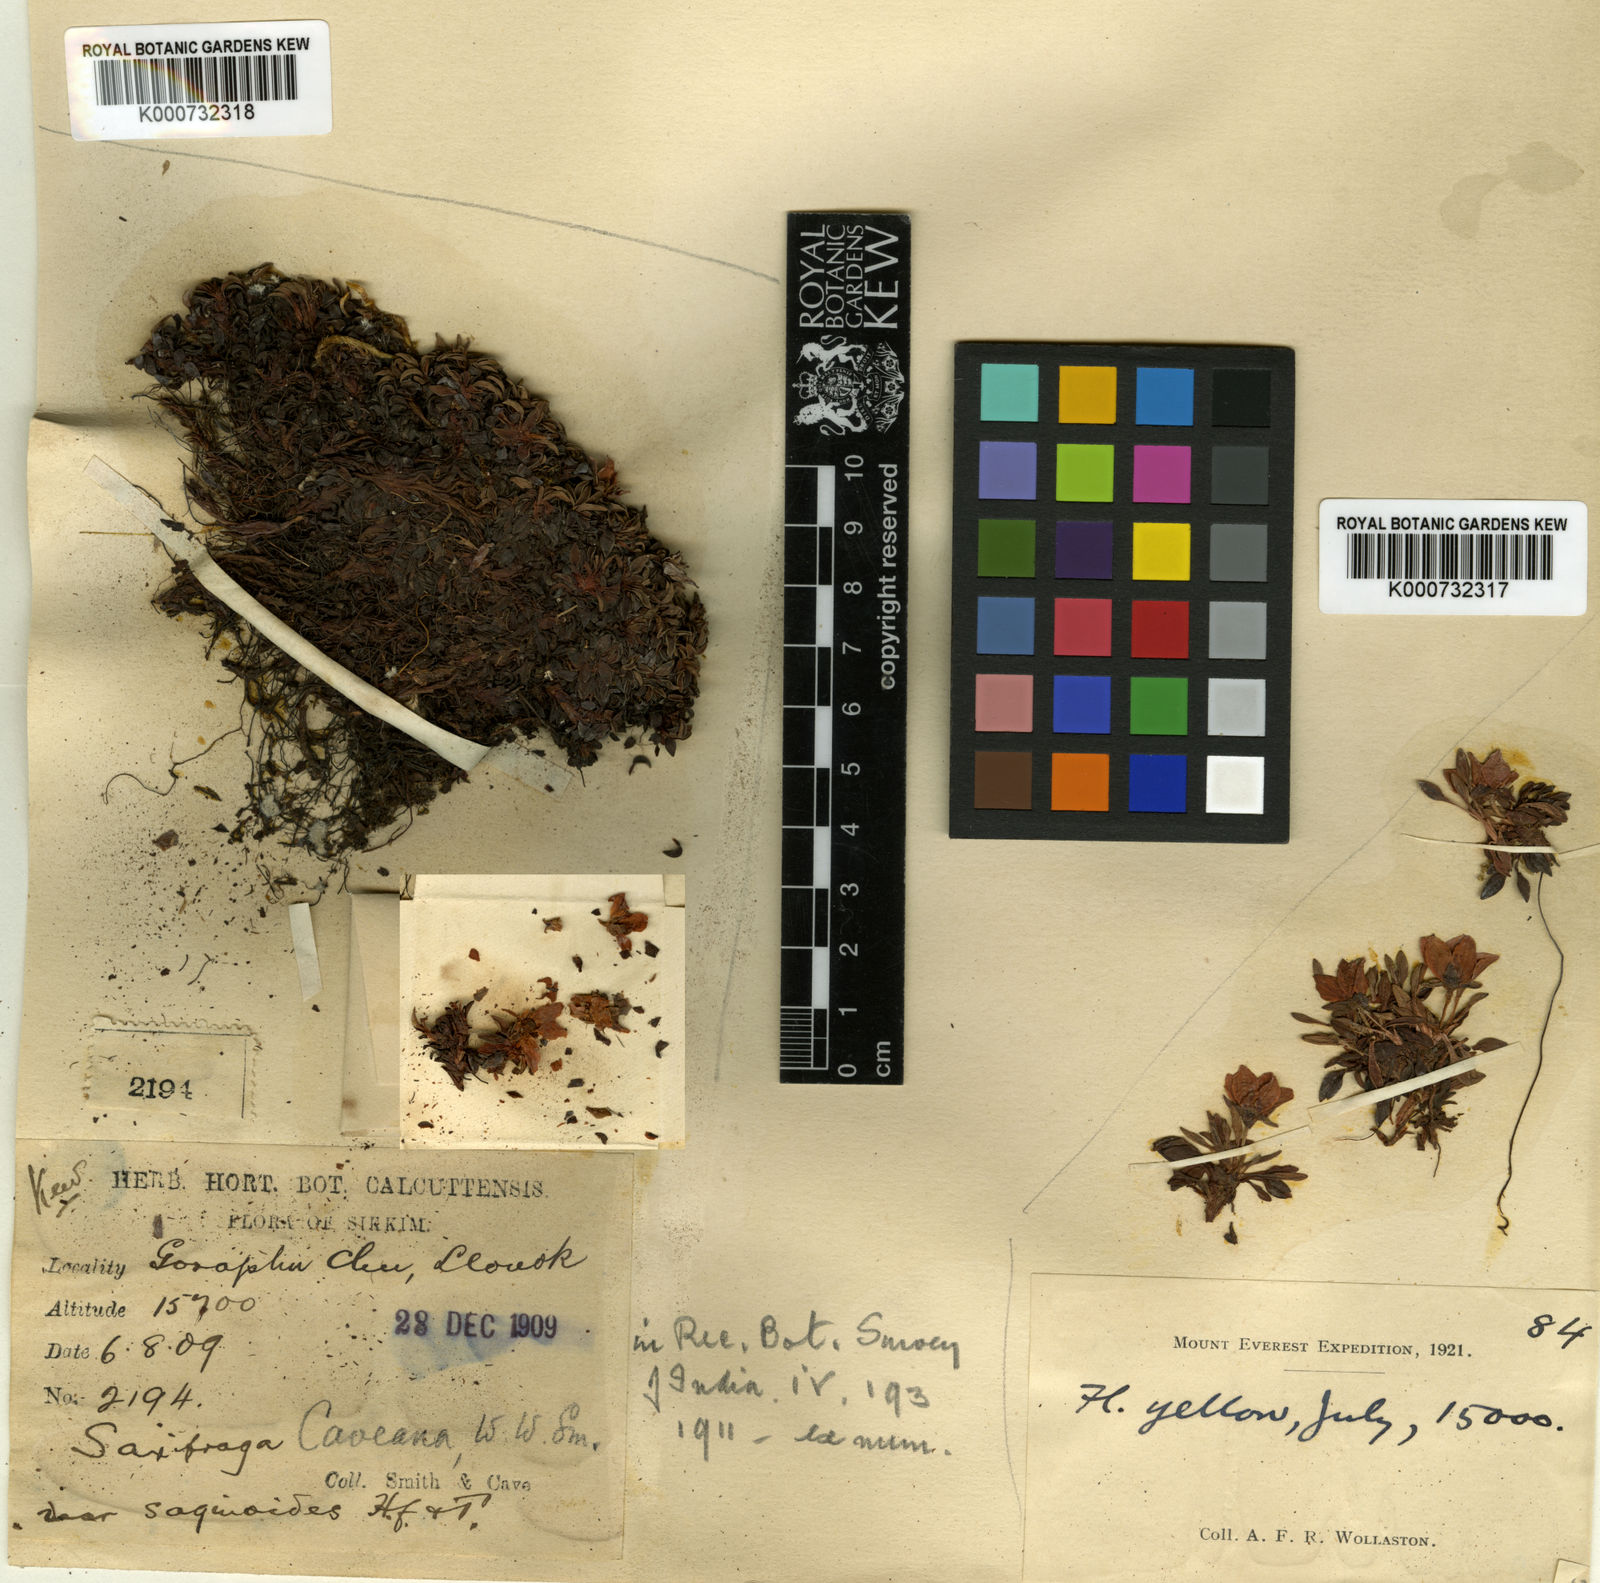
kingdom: Plantae
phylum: Tracheophyta
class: Magnoliopsida
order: Saxifragales
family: Saxifragaceae
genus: Saxifraga
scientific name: Saxifraga caveana
